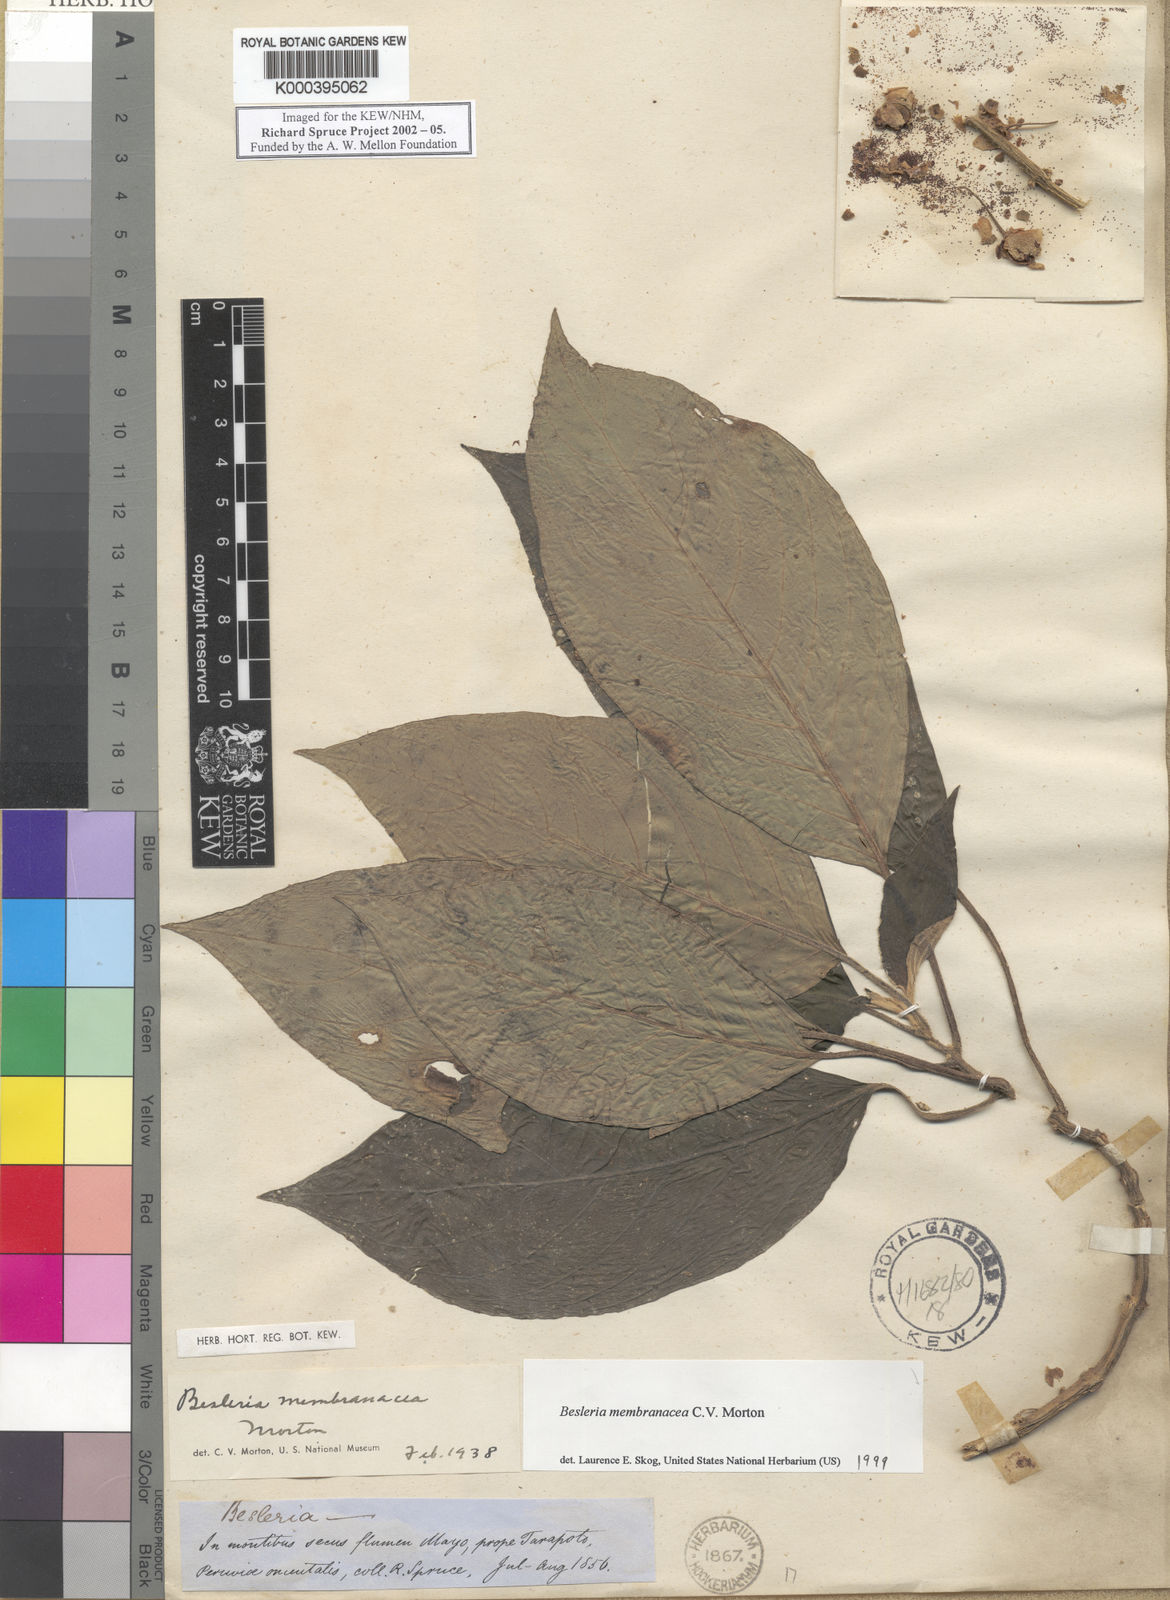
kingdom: Plantae
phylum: Tracheophyta
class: Magnoliopsida
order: Lamiales
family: Gesneriaceae
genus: Besleria
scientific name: Besleria membranacea
